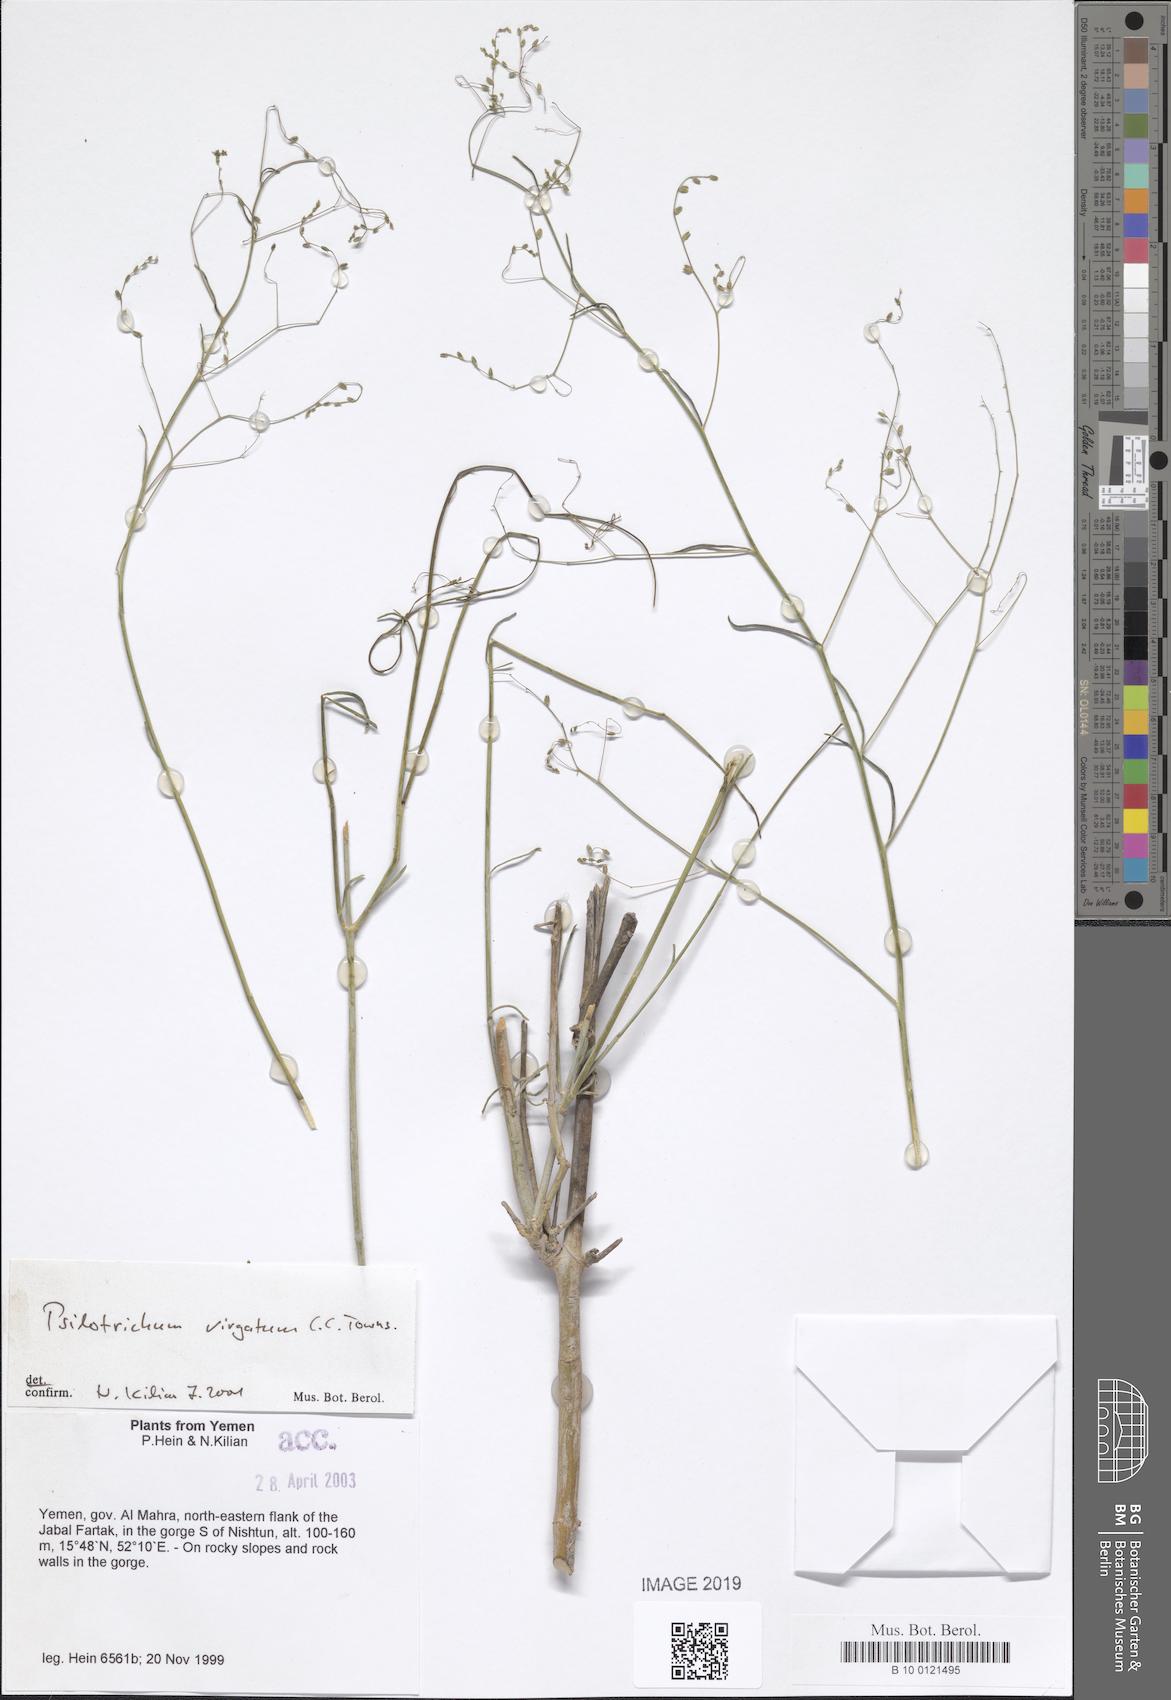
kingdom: Plantae
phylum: Tracheophyta
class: Magnoliopsida
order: Caryophyllales
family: Amaranthaceae
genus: Psilotrichum
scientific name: Psilotrichum virgatum
